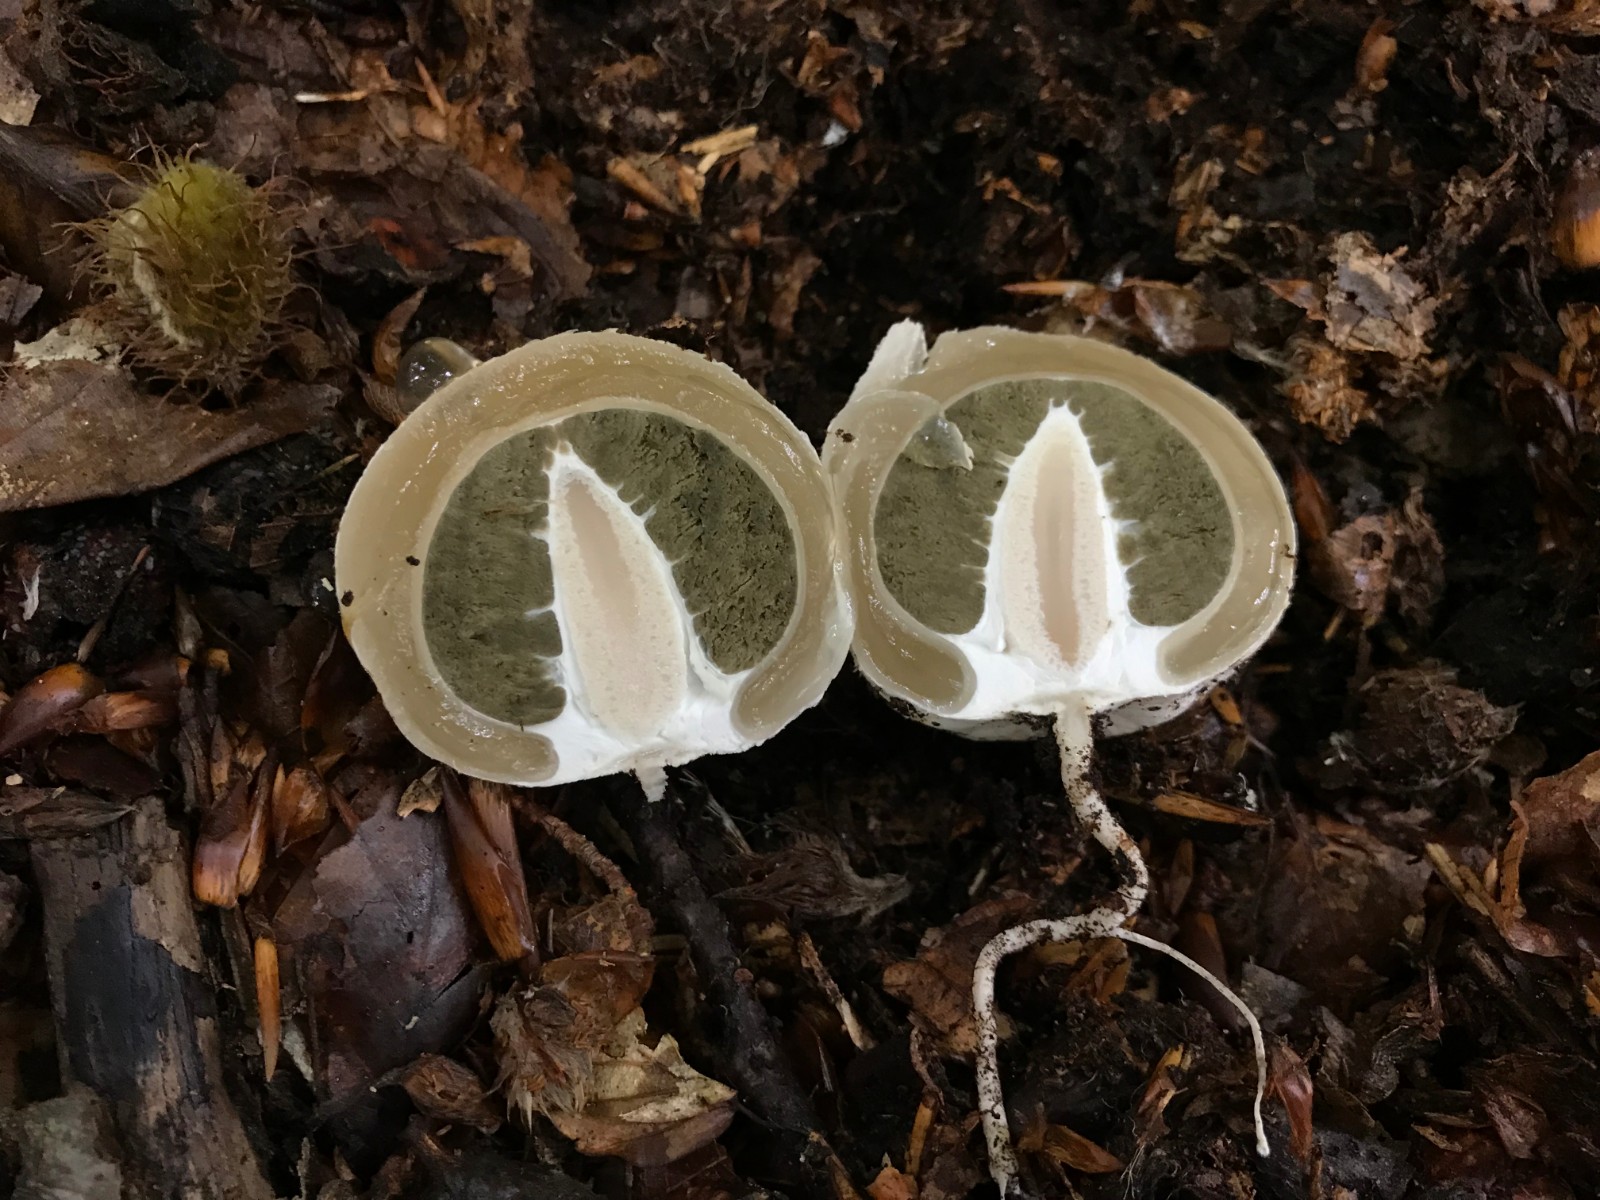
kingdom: Fungi
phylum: Basidiomycota
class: Agaricomycetes
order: Phallales
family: Phallaceae
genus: Phallus
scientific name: Phallus impudicus
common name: almindelig stinksvamp
